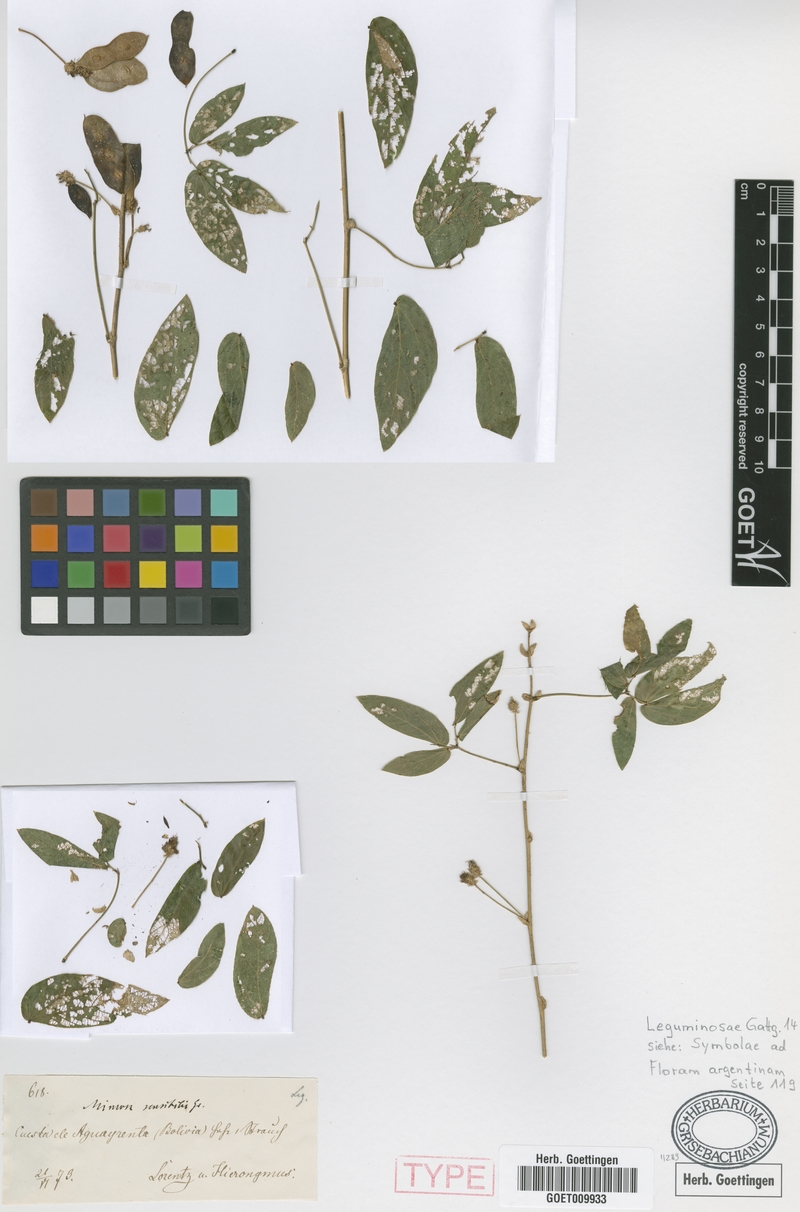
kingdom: Plantae
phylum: Tracheophyta
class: Magnoliopsida
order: Fabales
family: Fabaceae
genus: Mimosa
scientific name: Mimosa debilis
